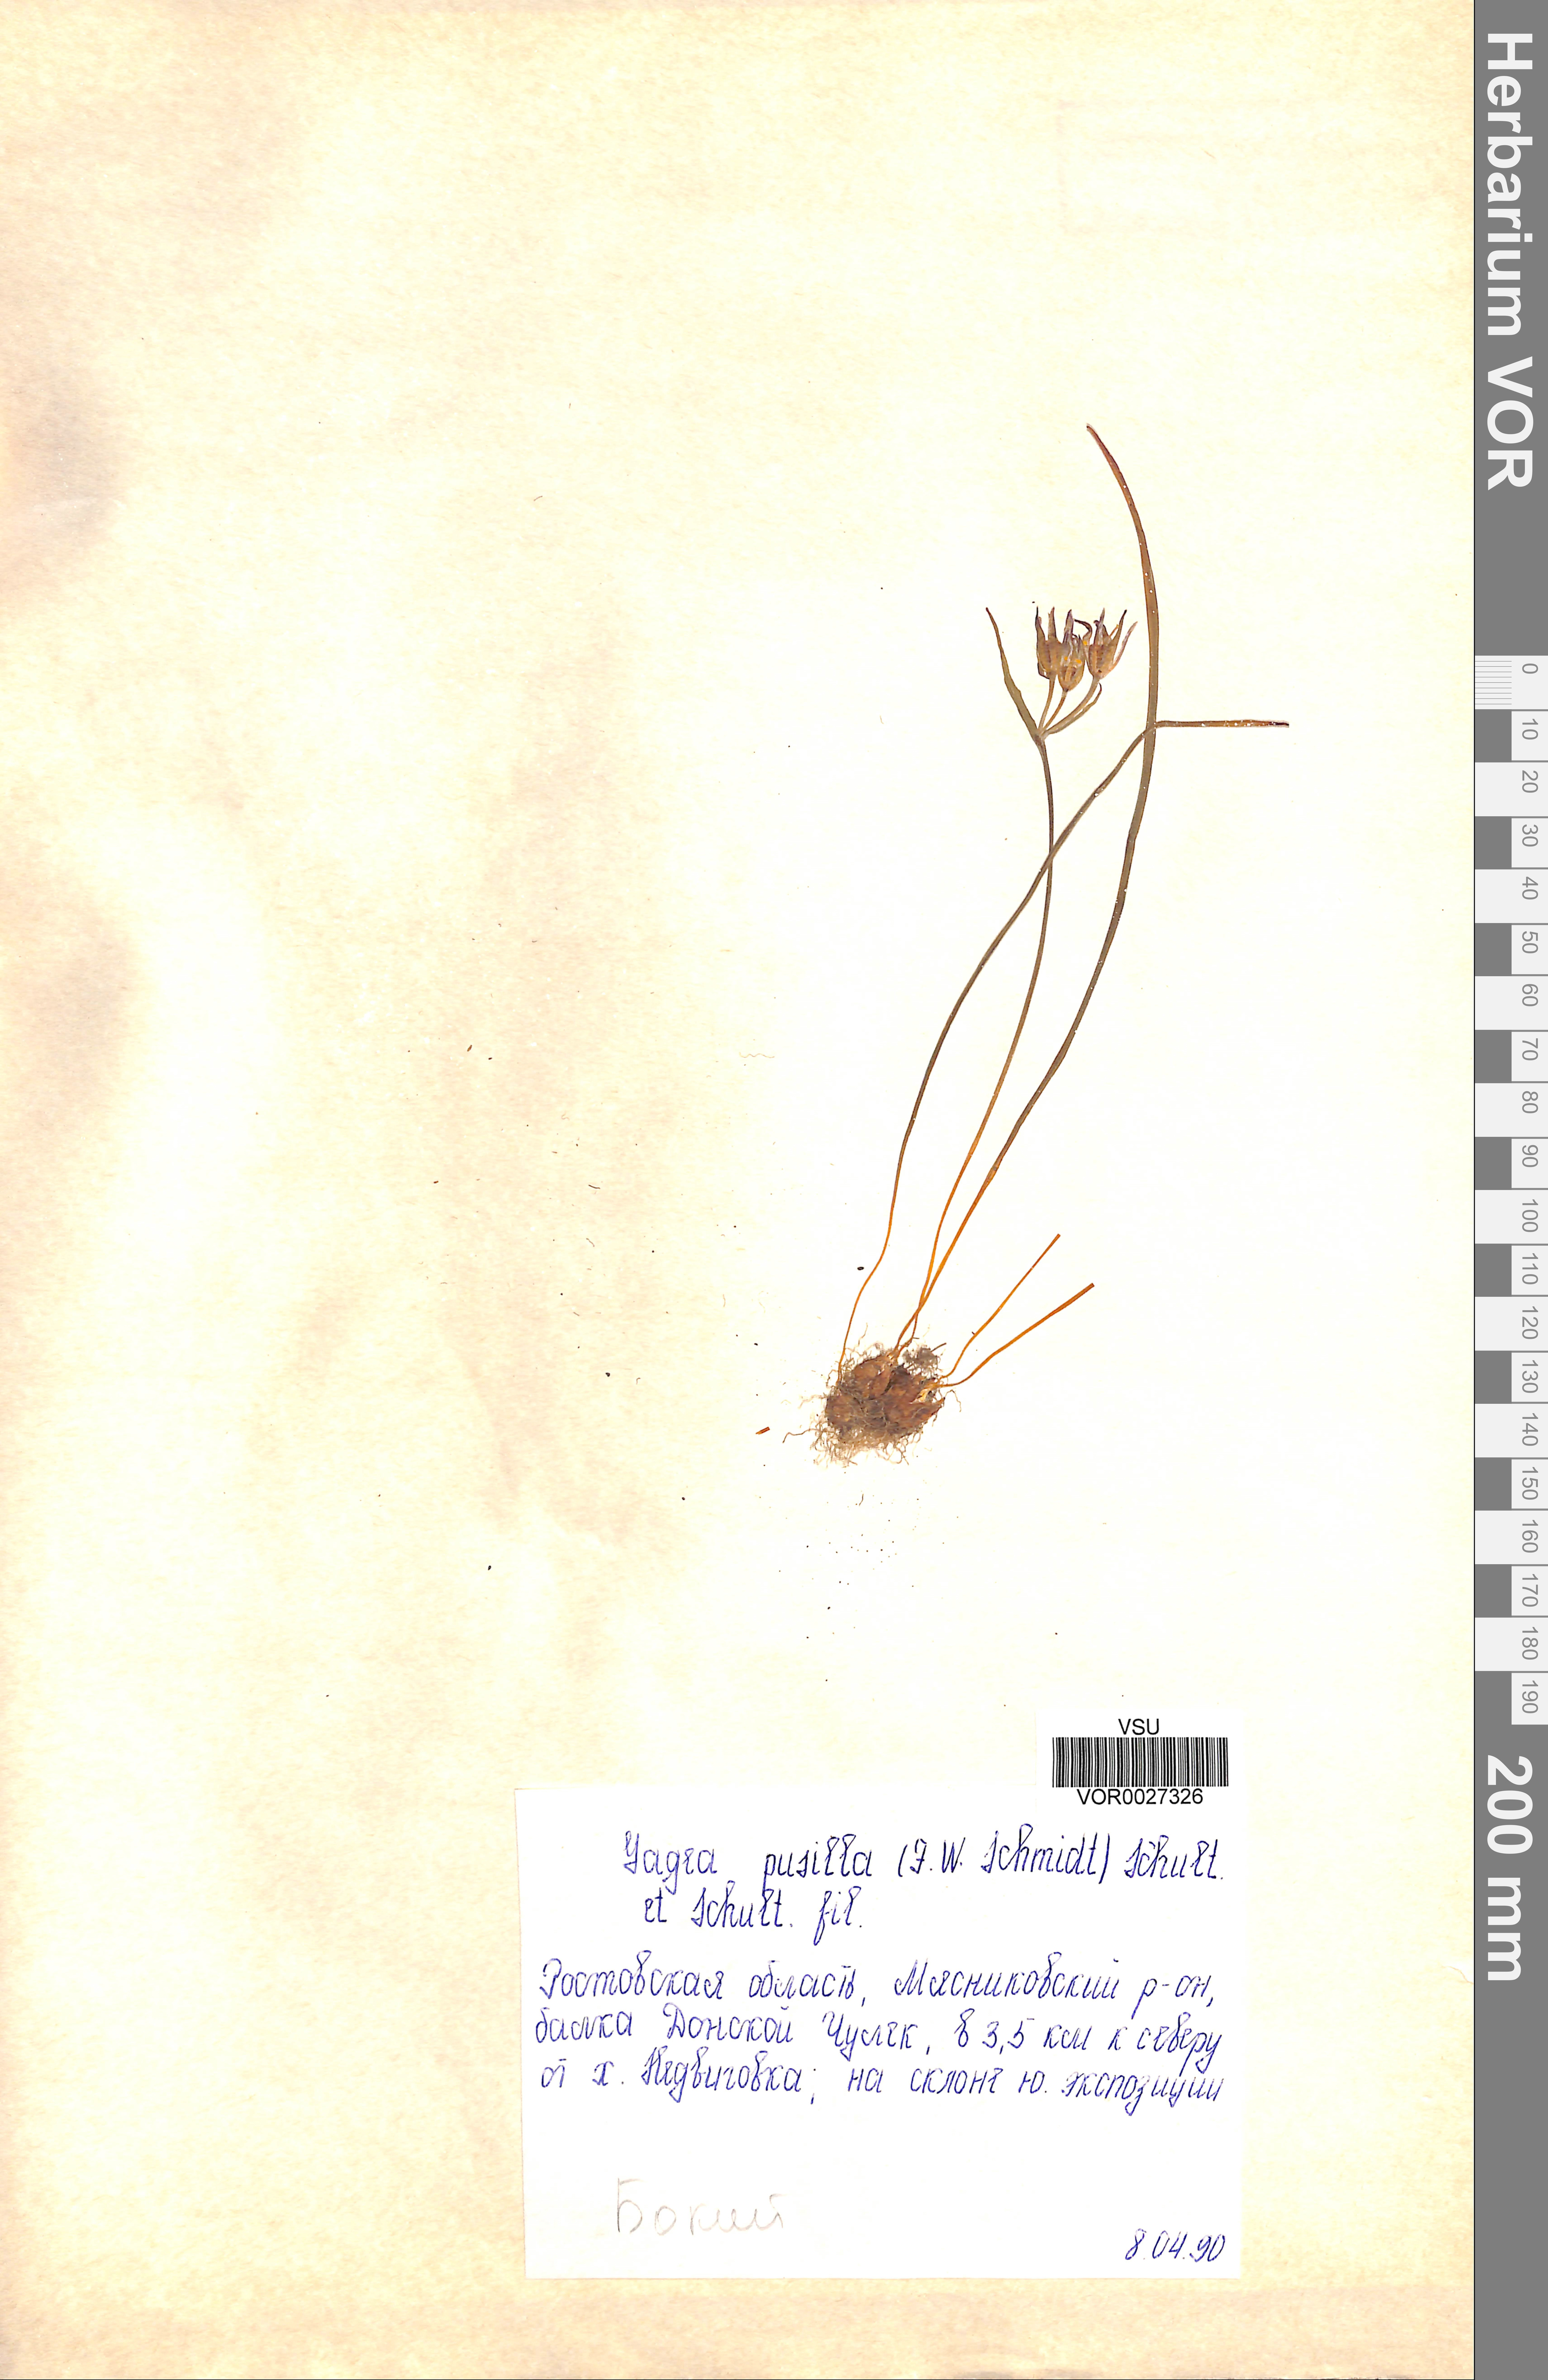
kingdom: Plantae
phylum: Tracheophyta
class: Liliopsida
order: Liliales
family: Liliaceae
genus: Gagea
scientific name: Gagea pusilla
